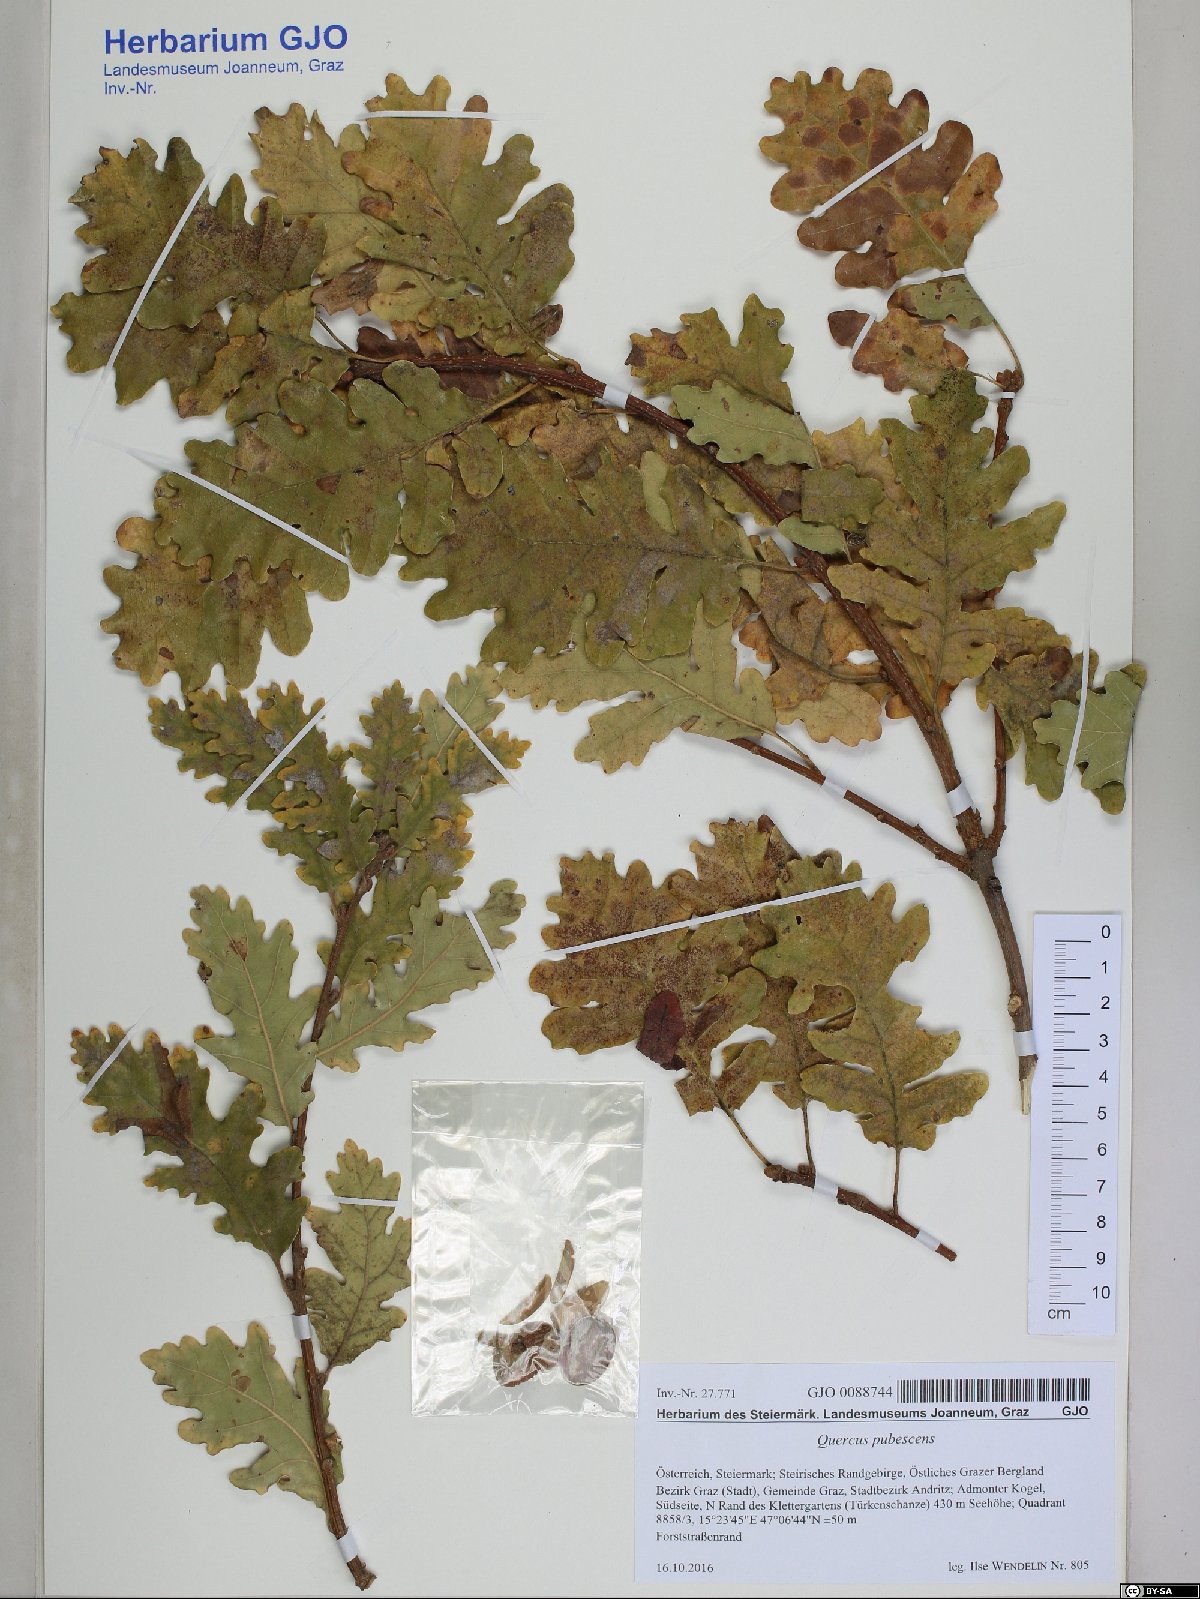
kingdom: Plantae
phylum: Tracheophyta
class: Magnoliopsida
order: Fagales
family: Fagaceae
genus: Quercus
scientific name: Quercus pubescens
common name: Downy oak
